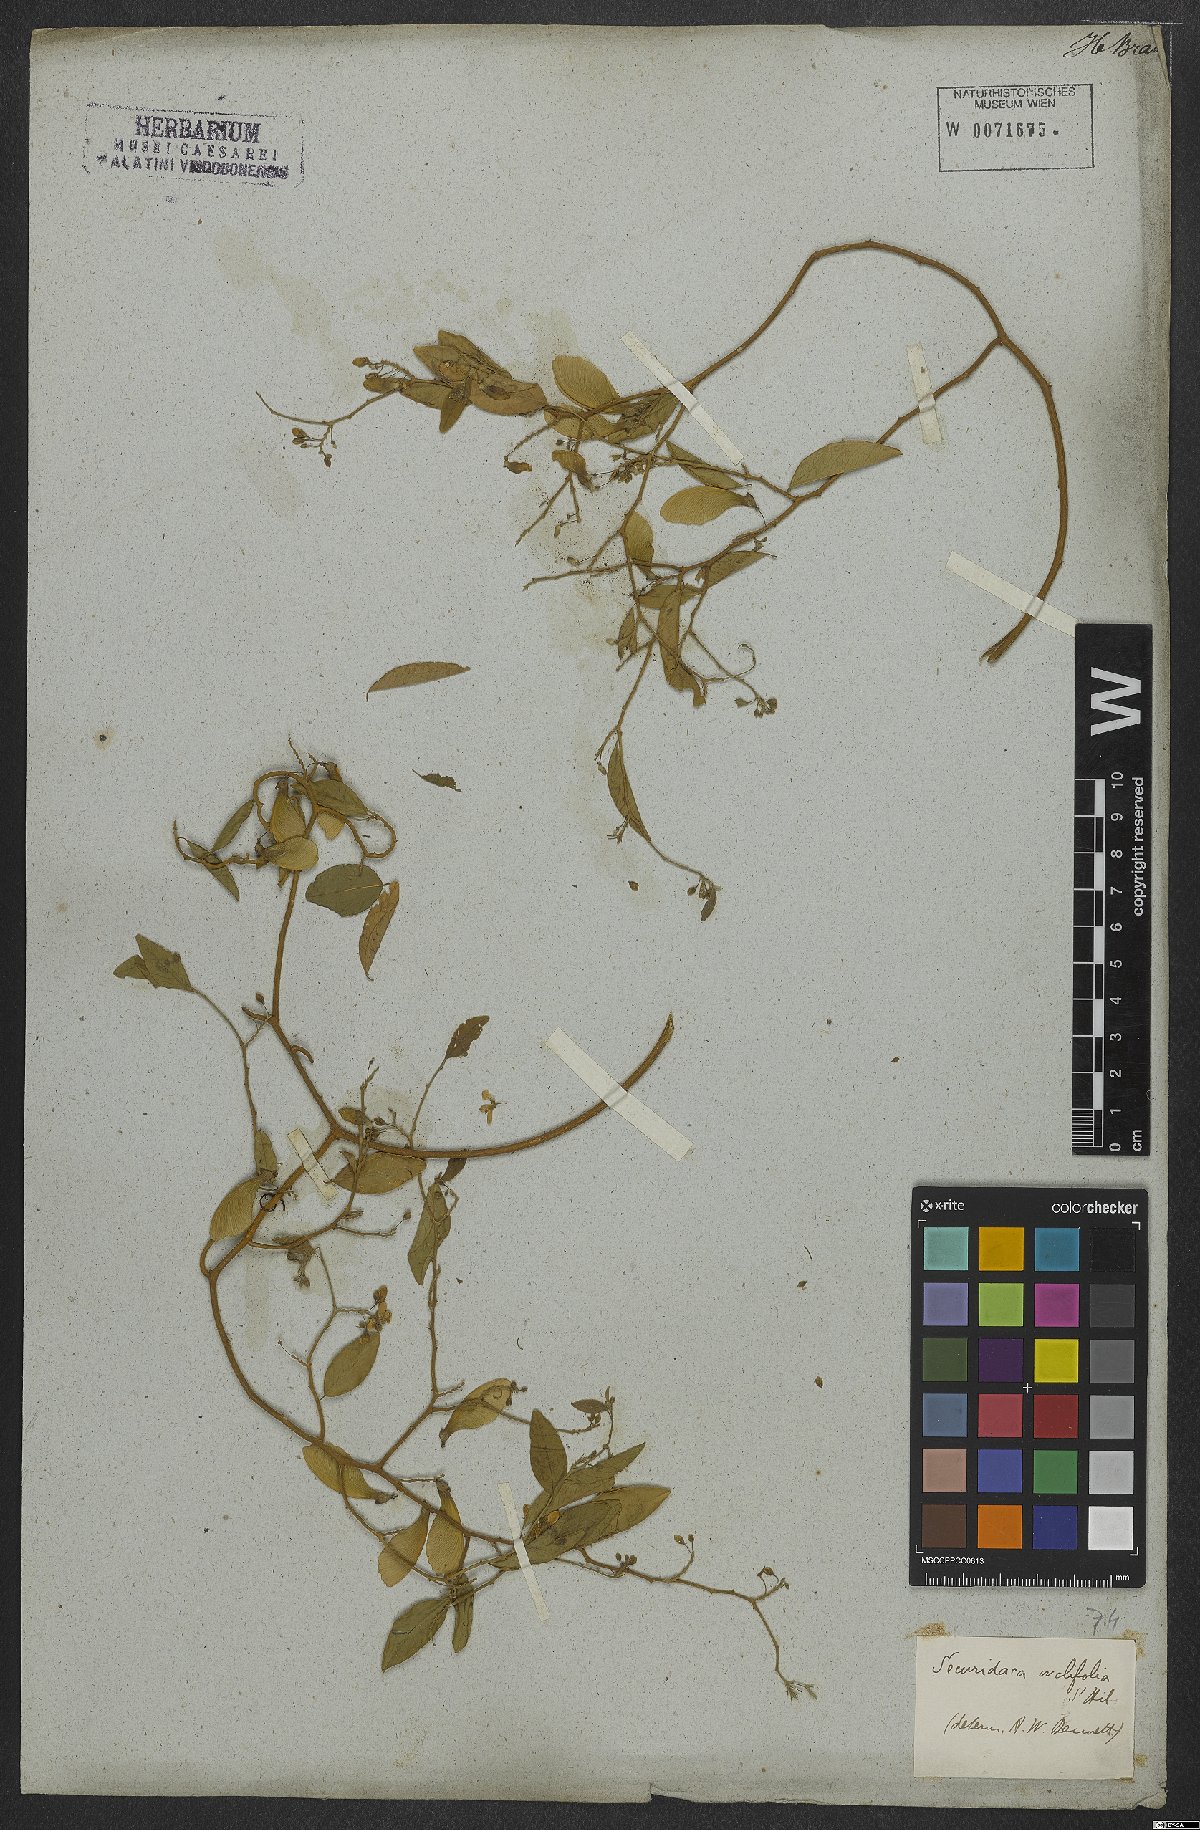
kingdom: Plantae
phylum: Tracheophyta
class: Magnoliopsida
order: Fabales
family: Polygalaceae
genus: Securidaca
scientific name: Securidaca ovalifolia
